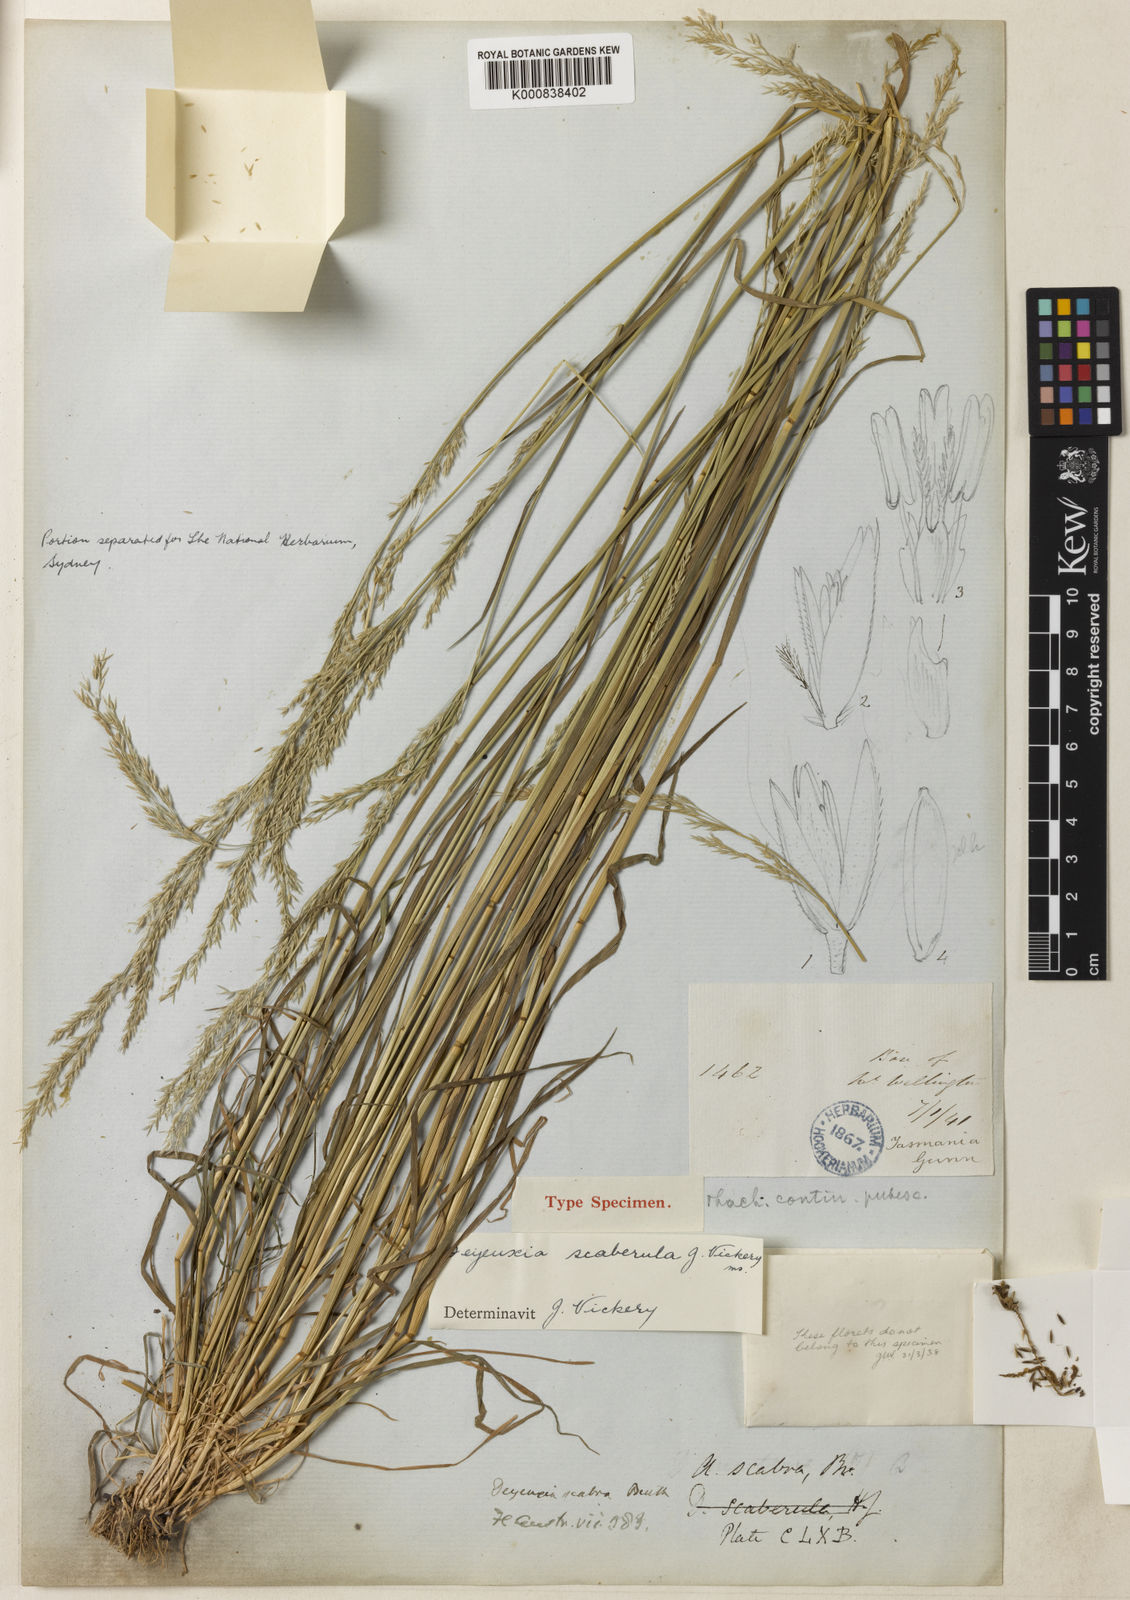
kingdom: Plantae
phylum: Tracheophyta
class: Liliopsida
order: Poales
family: Poaceae
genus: Calamagrostis
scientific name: Calamagrostis austroscaberula
